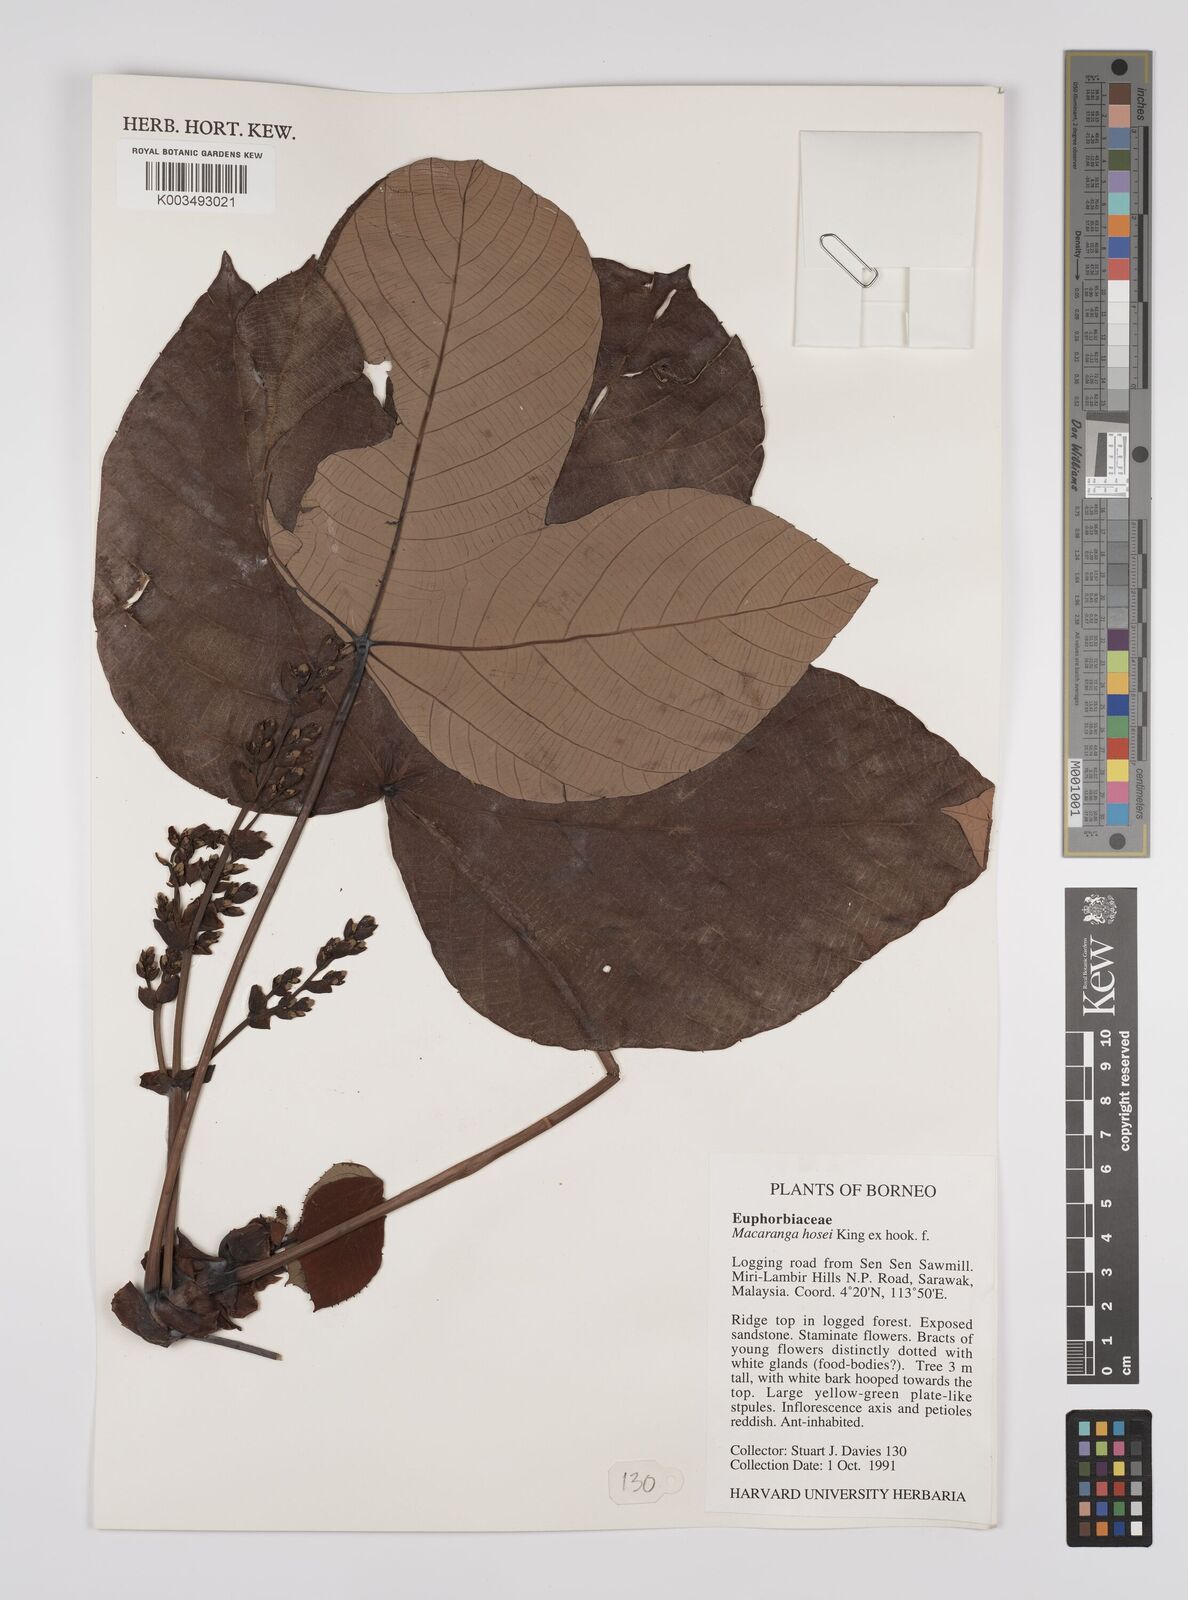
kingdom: Plantae
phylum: Tracheophyta
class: Magnoliopsida
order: Malpighiales
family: Euphorbiaceae
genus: Macaranga
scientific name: Macaranga hosei
